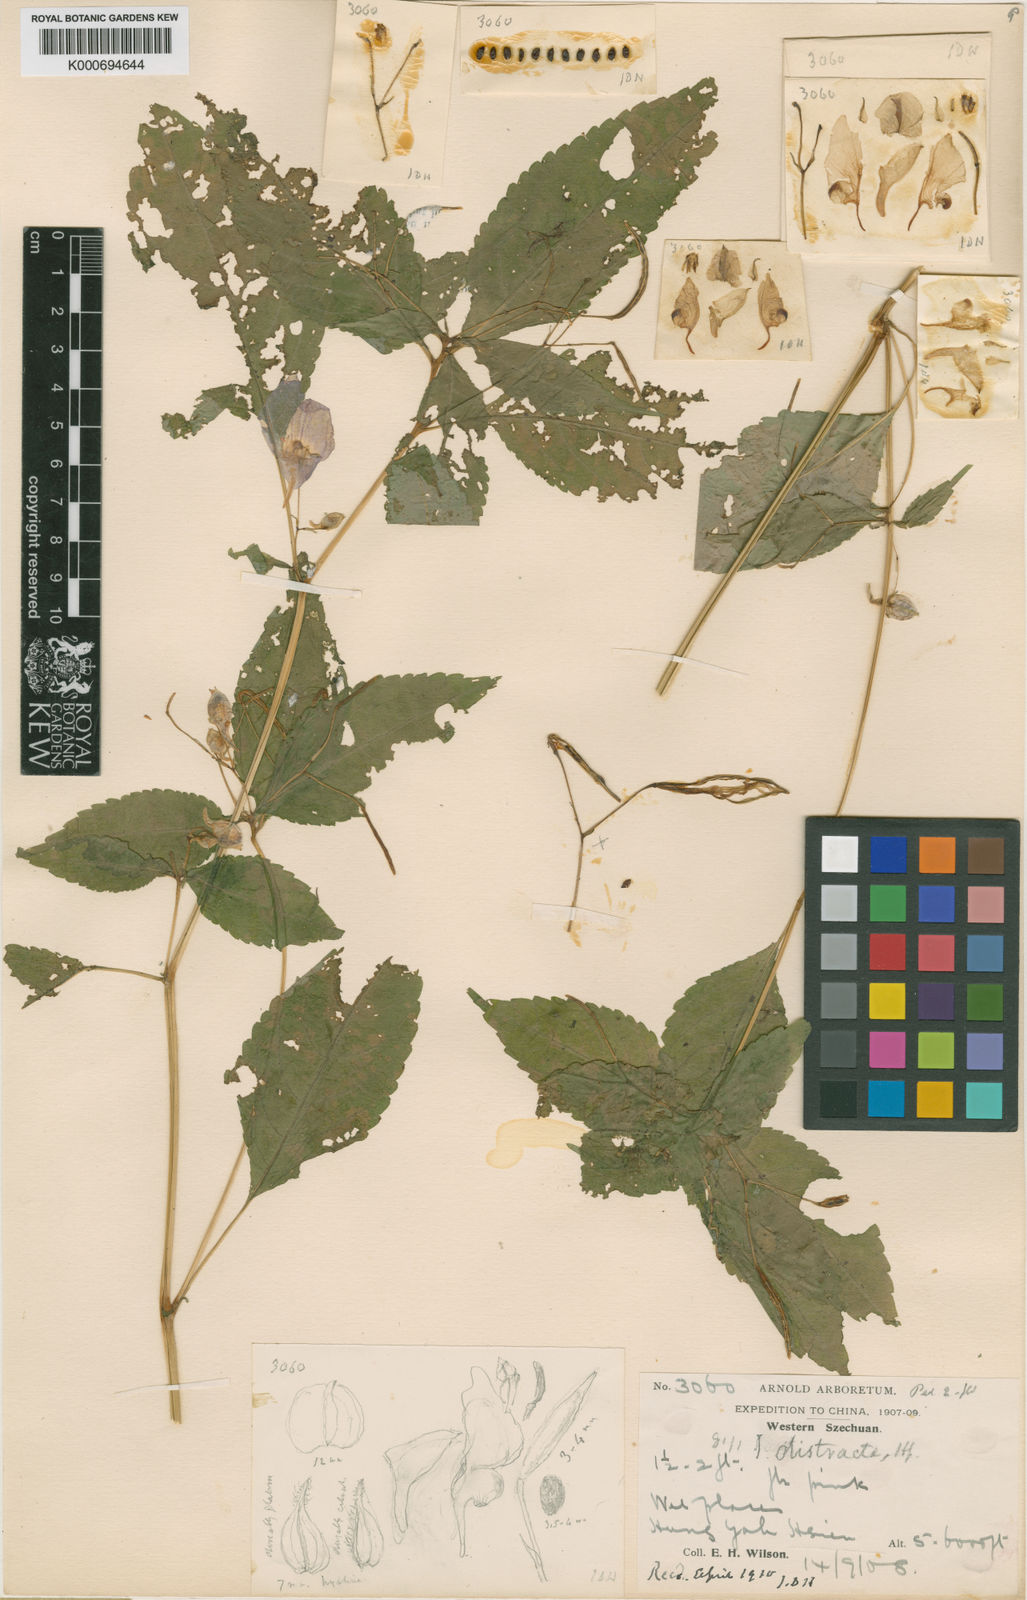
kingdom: Plantae
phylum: Tracheophyta
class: Magnoliopsida
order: Ericales
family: Balsaminaceae
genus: Impatiens
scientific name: Impatiens distracta
